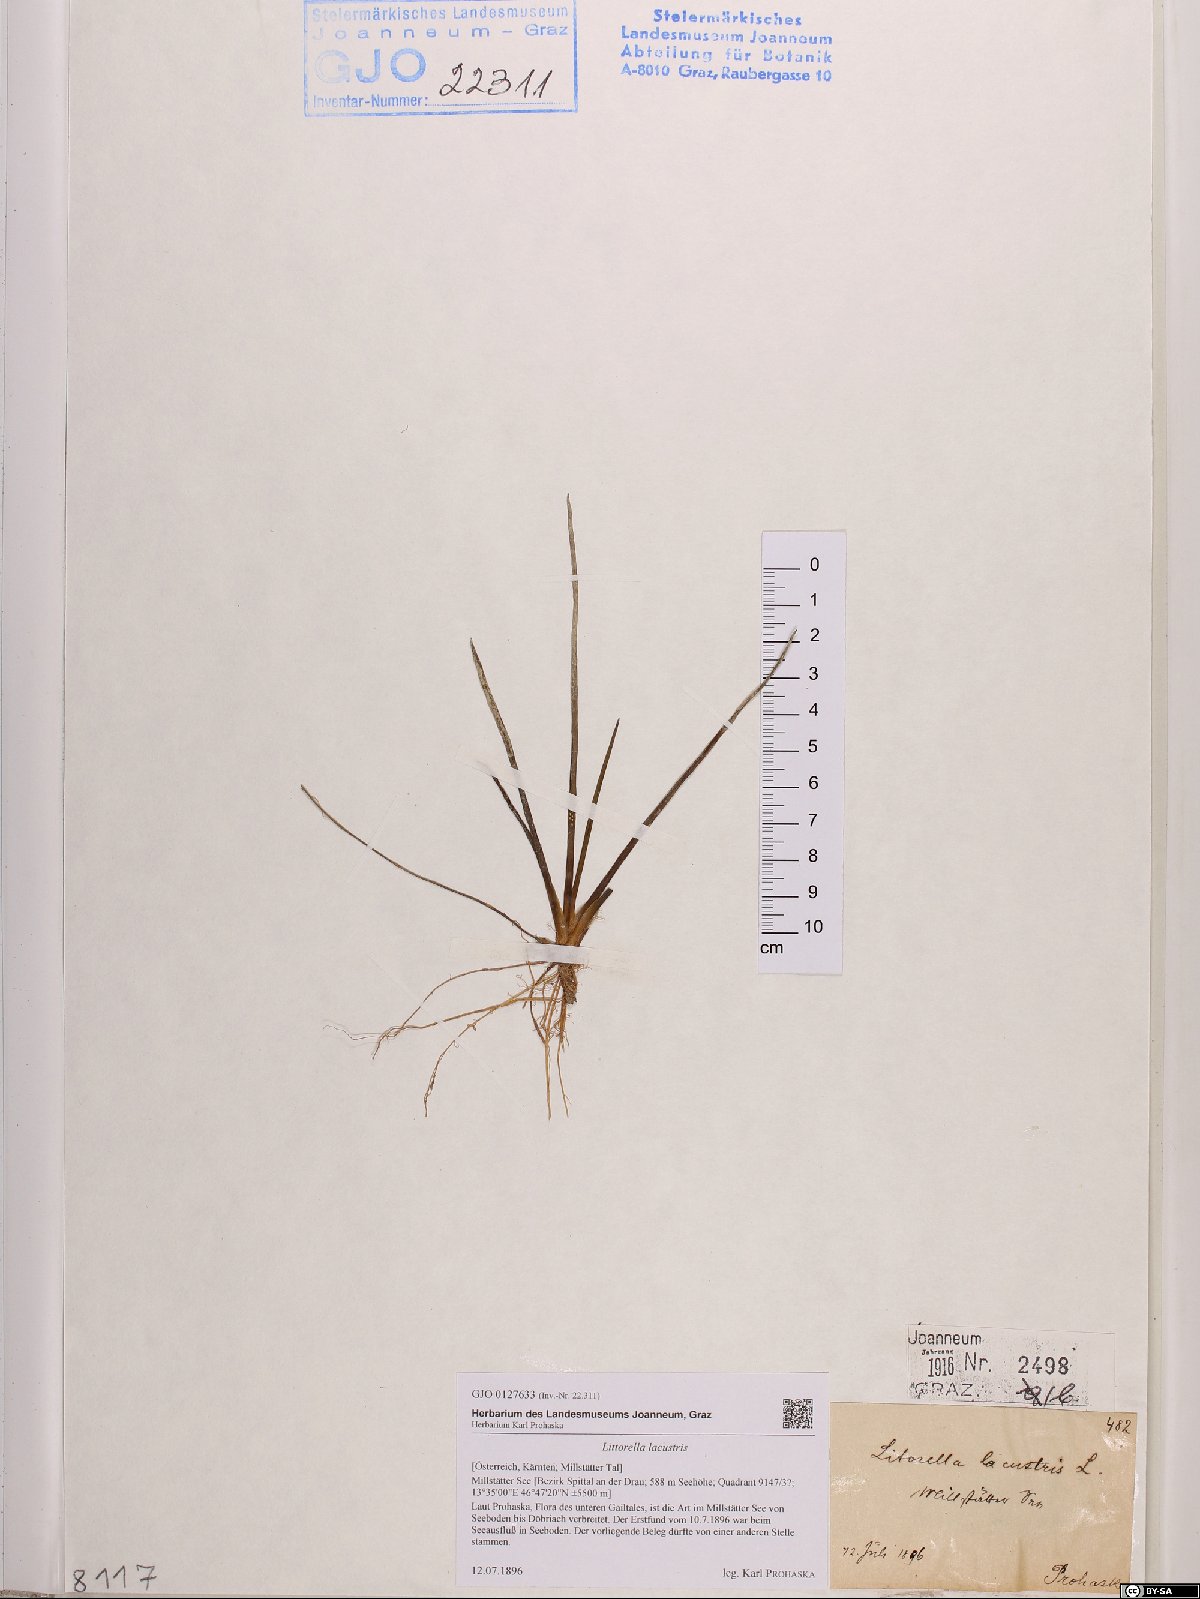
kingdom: Plantae
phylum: Tracheophyta
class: Magnoliopsida
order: Lamiales
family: Plantaginaceae
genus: Littorella
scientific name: Littorella uniflora
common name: Shoreweed
